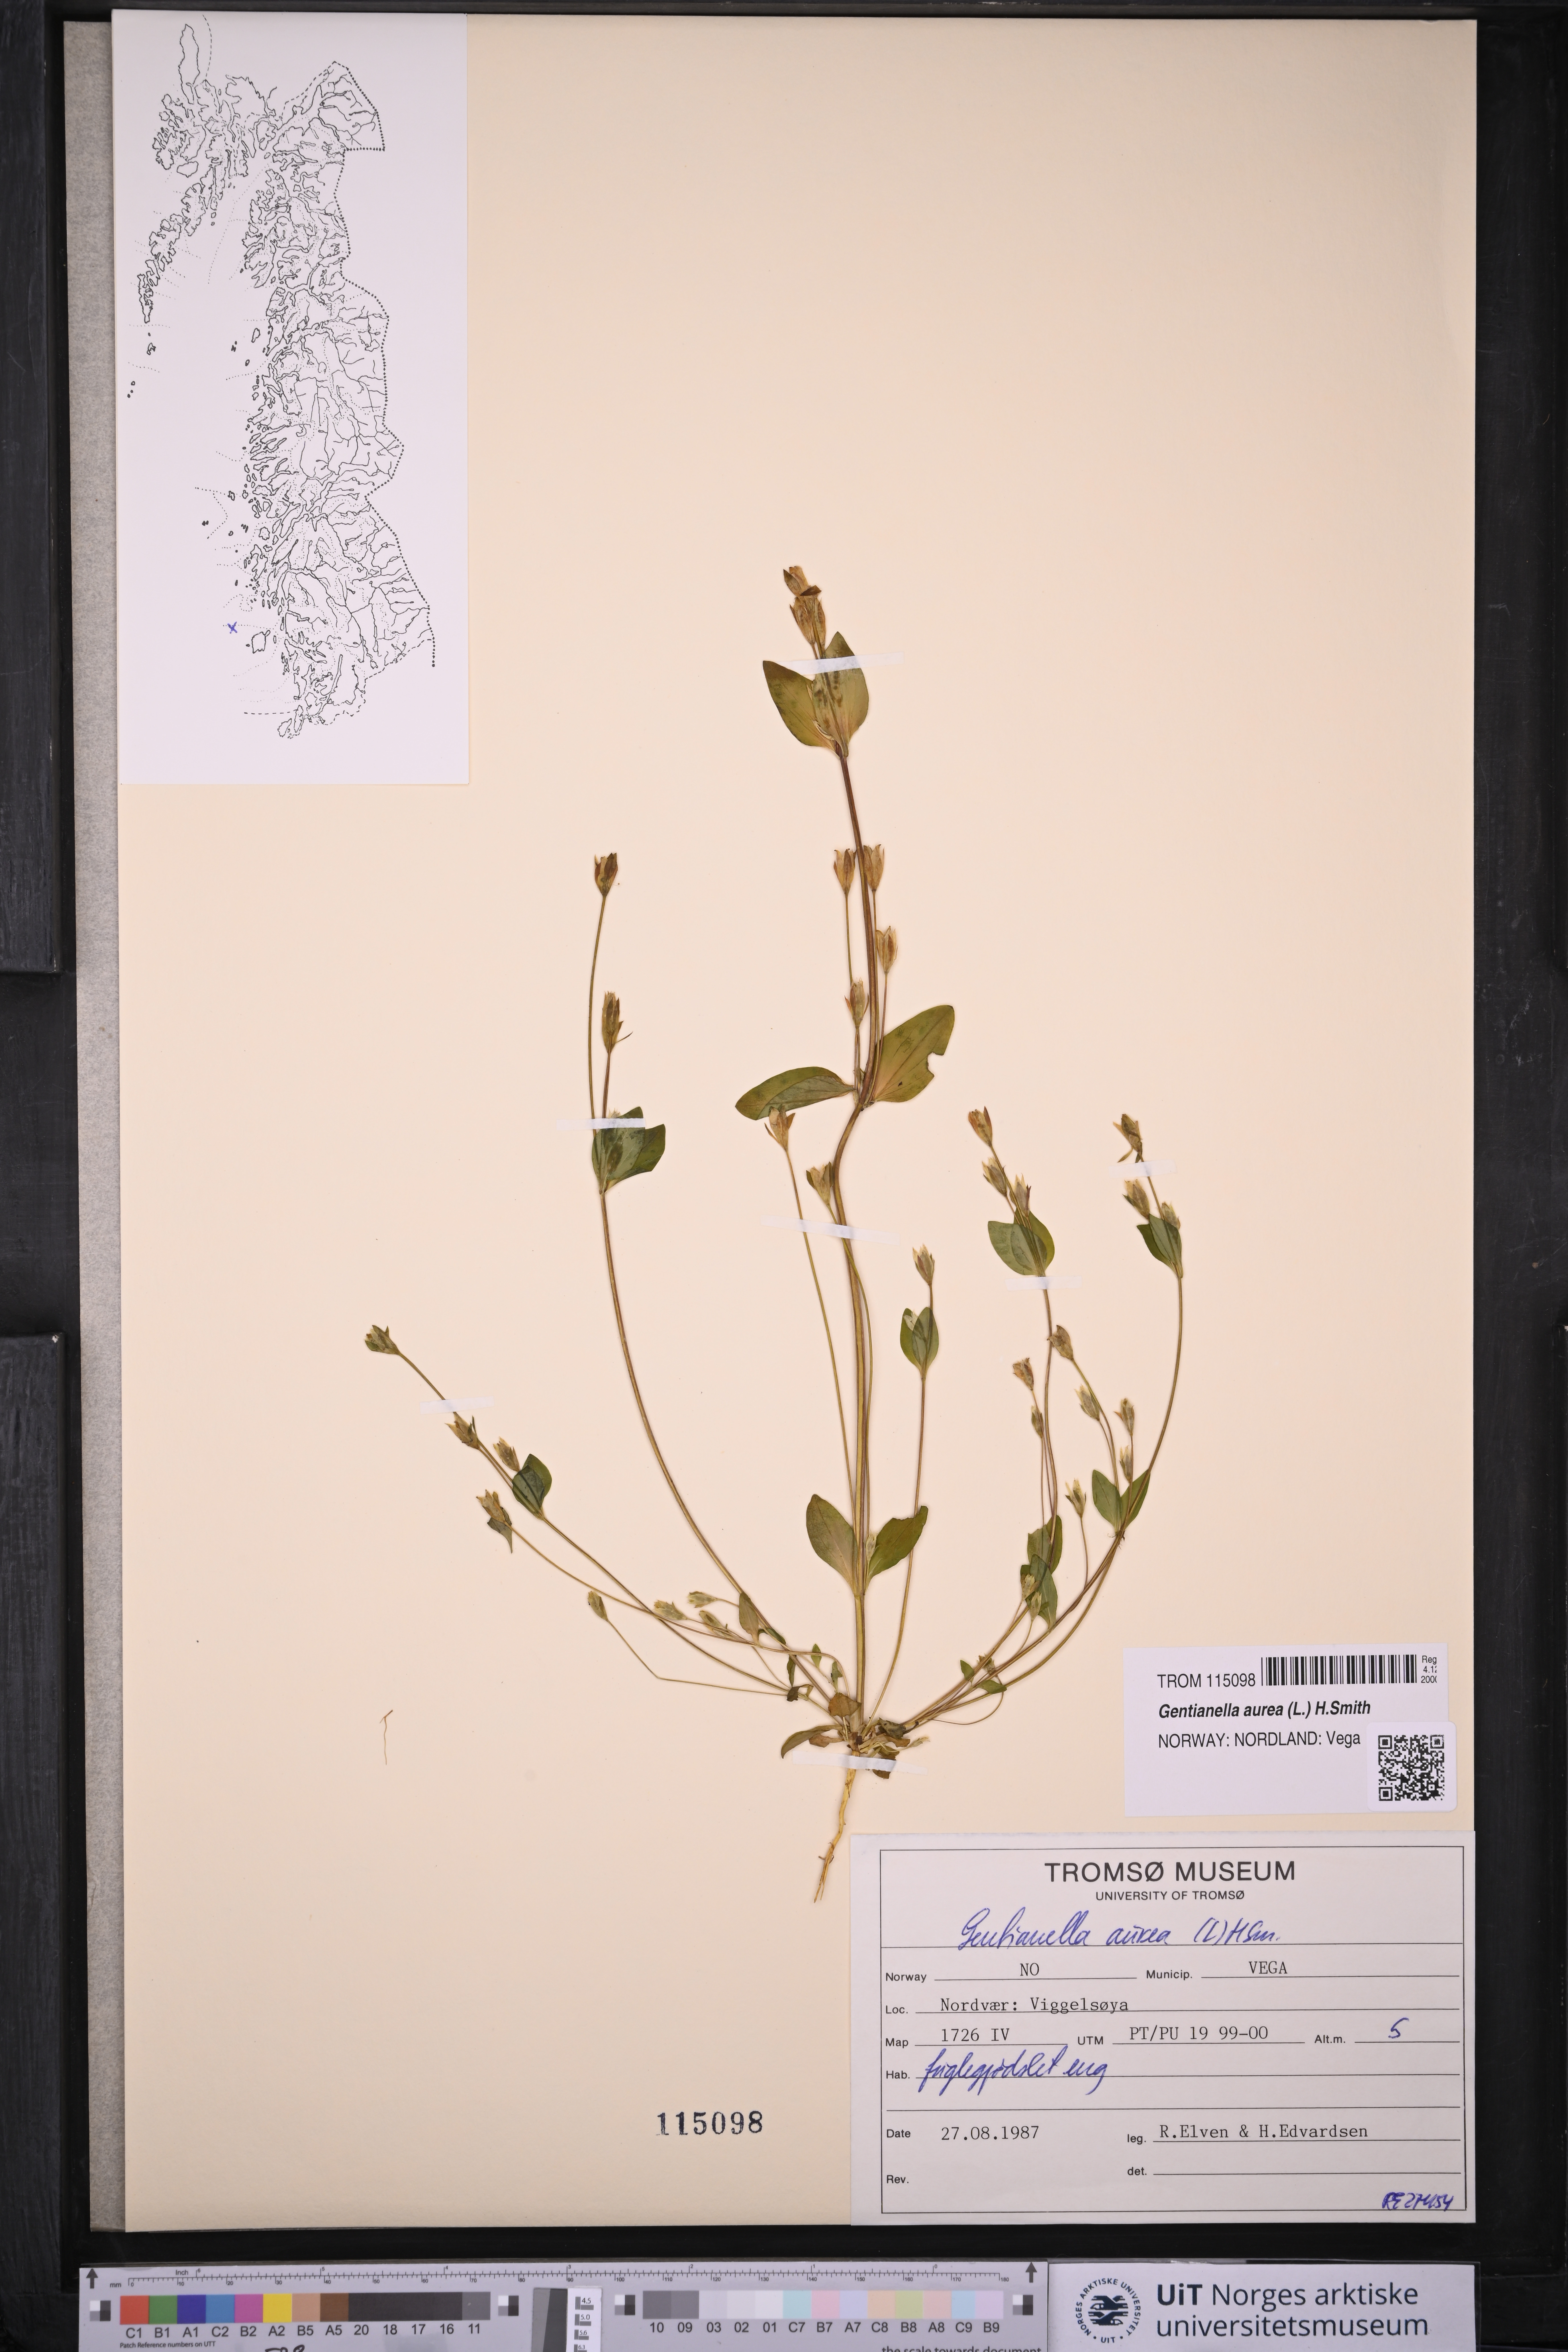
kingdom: Plantae
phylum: Tracheophyta
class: Magnoliopsida
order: Gentianales
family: Gentianaceae
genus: Gentianella
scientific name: Gentianella aurea
